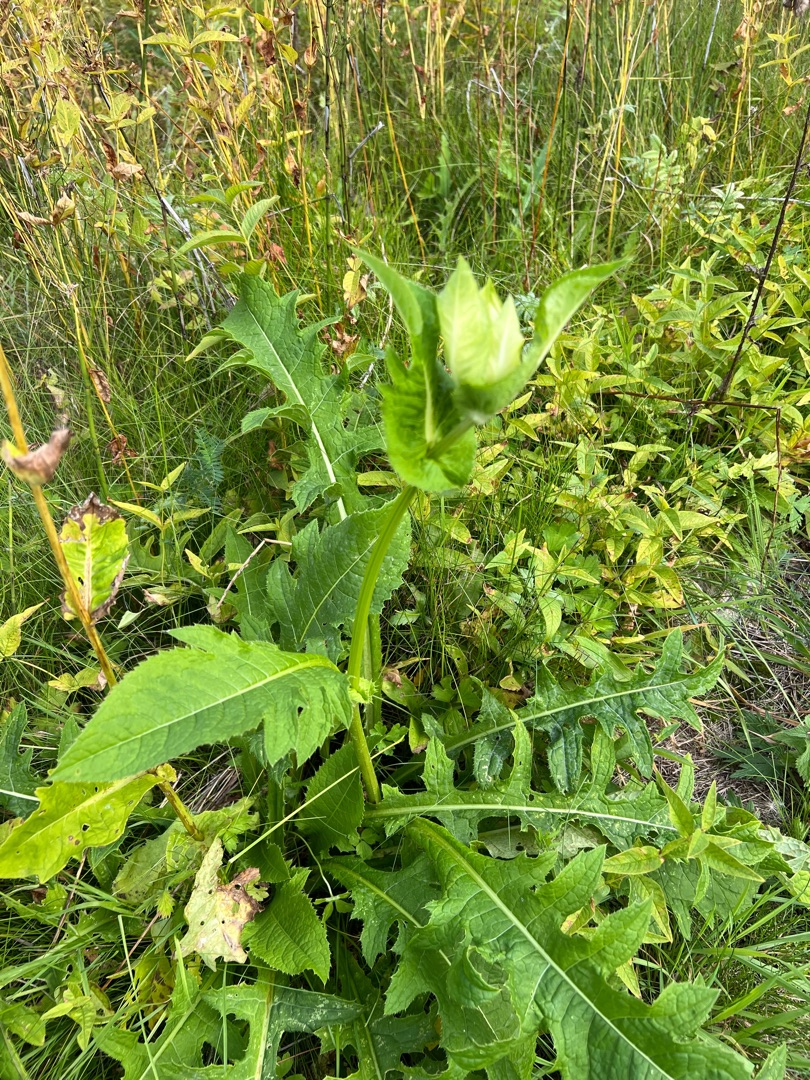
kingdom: Plantae
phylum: Tracheophyta
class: Magnoliopsida
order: Asterales
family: Asteraceae
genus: Cirsium
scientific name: Cirsium oleraceum
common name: Kål-tidsel
